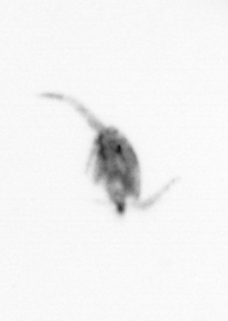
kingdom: Animalia
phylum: Arthropoda
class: Copepoda
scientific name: Copepoda
